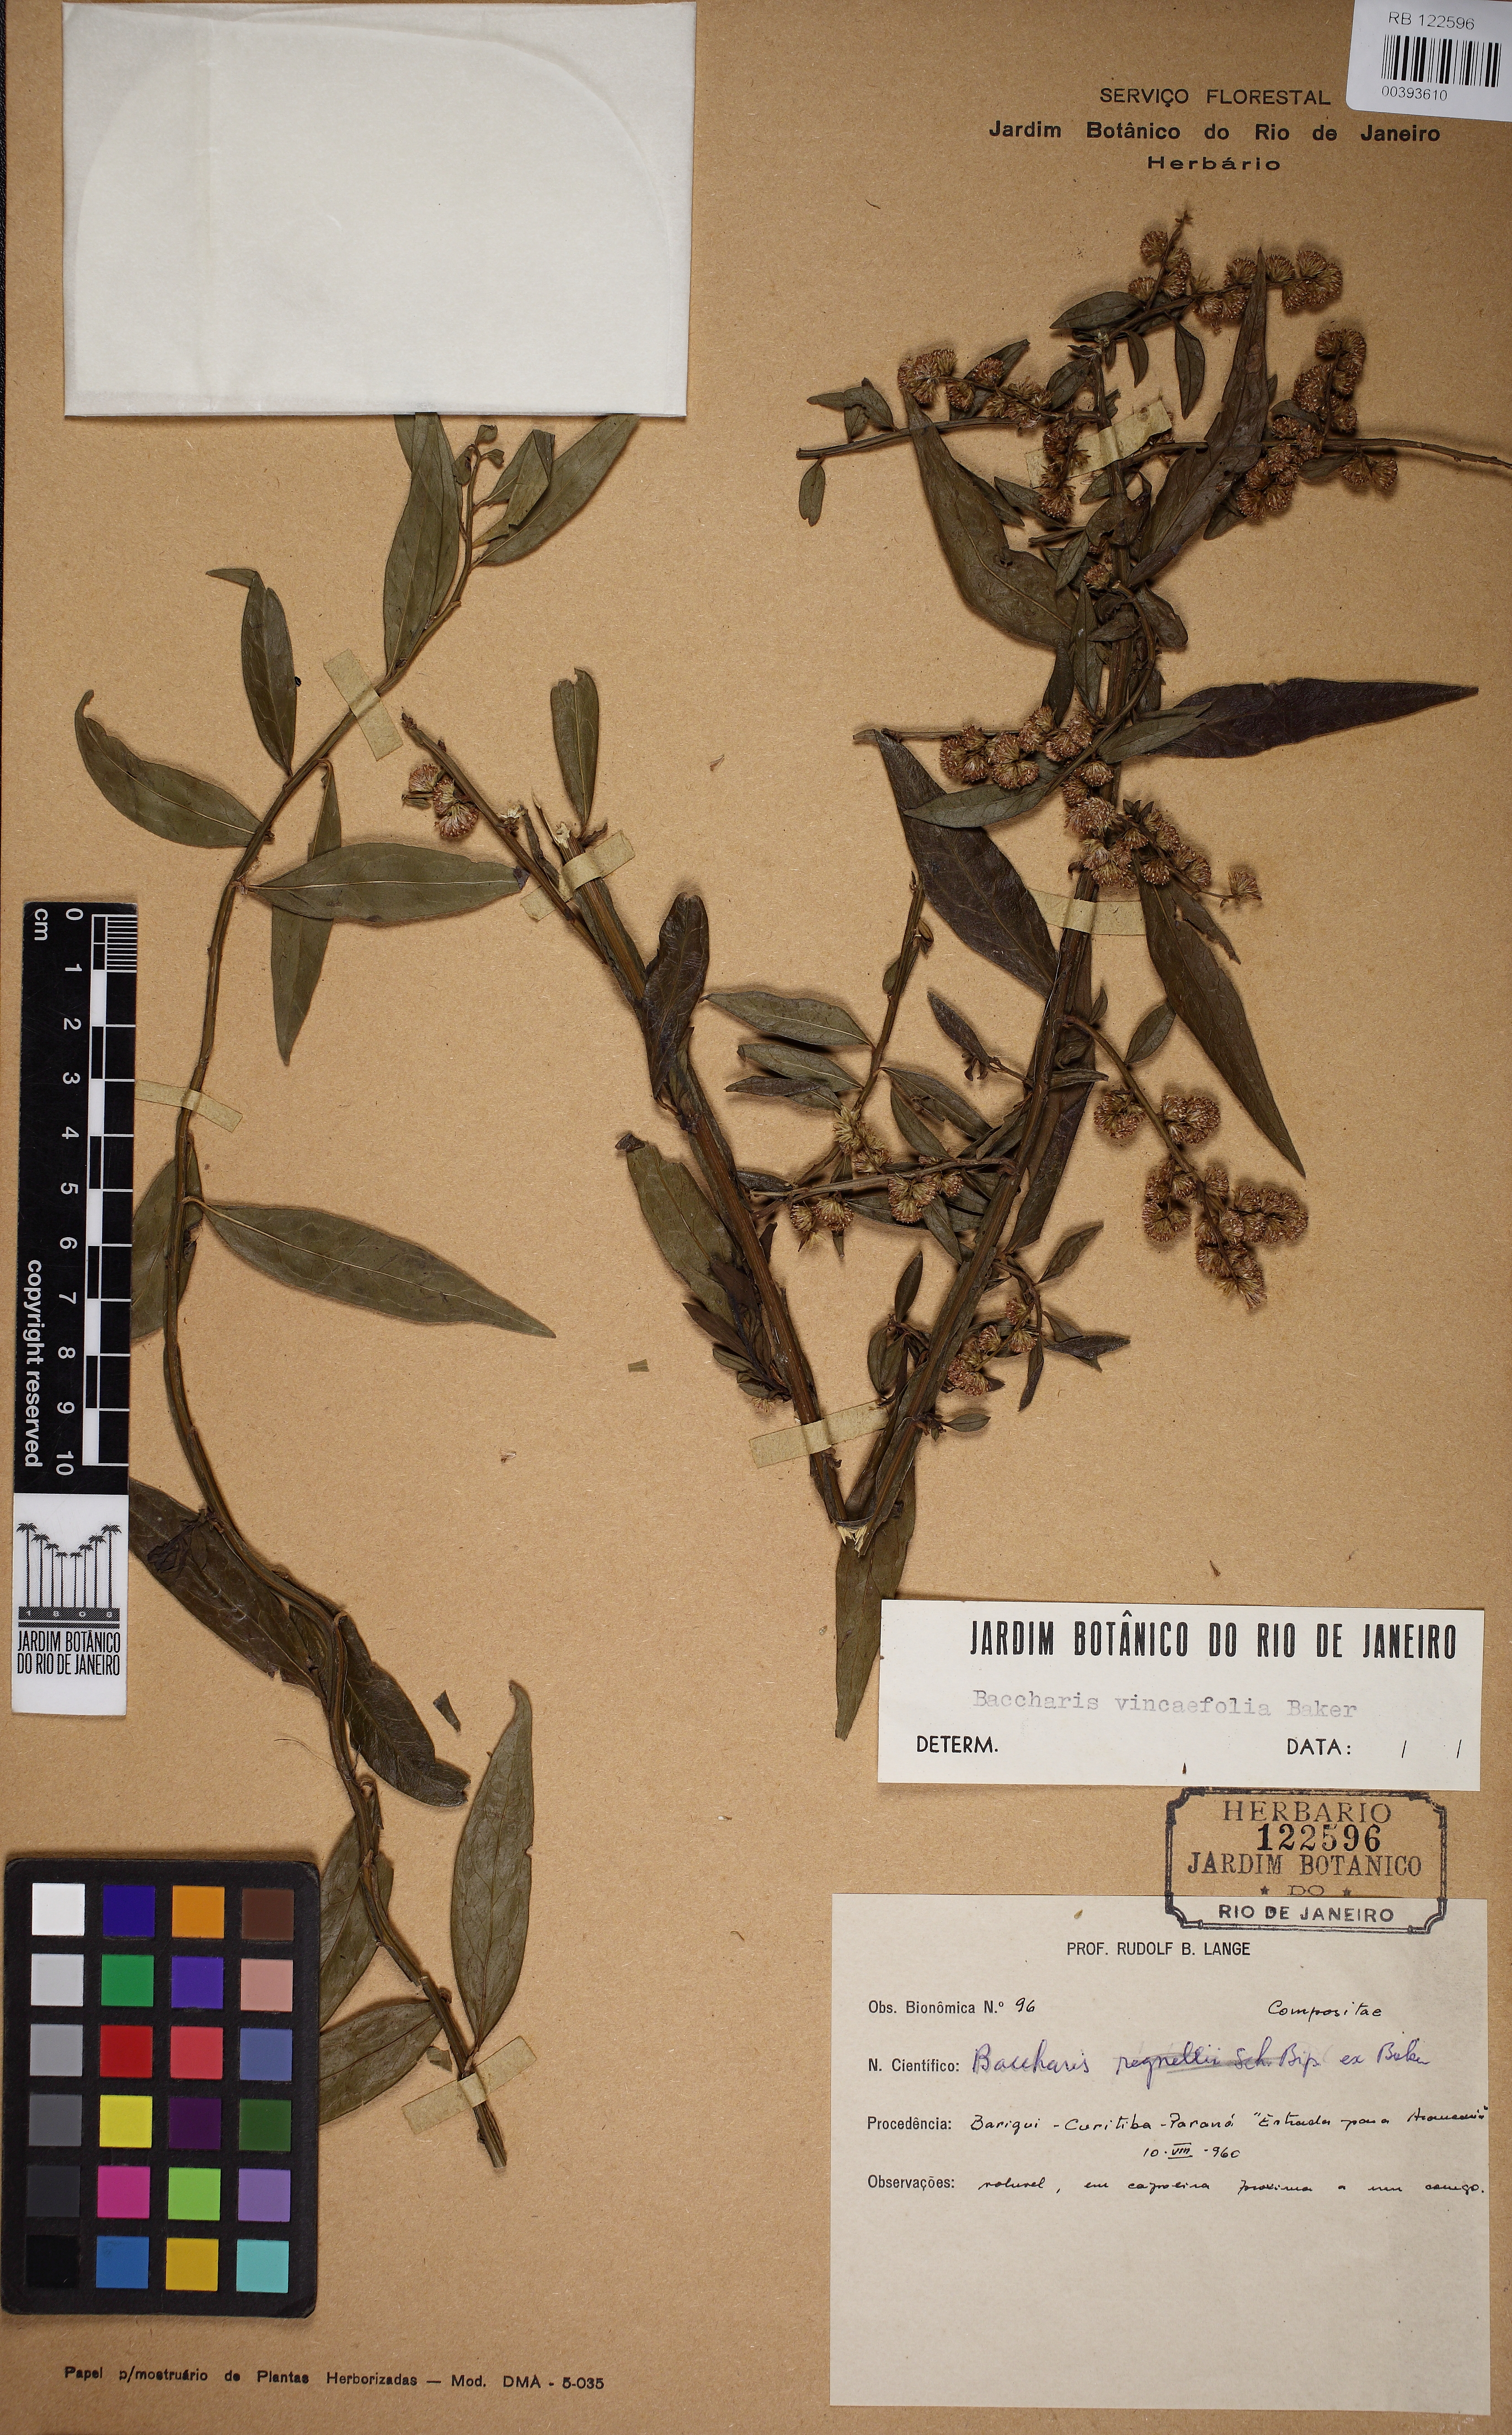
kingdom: Plantae
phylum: Tracheophyta
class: Magnoliopsida
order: Asterales
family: Asteraceae
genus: Baccharis
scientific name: Baccharis vincifolia
